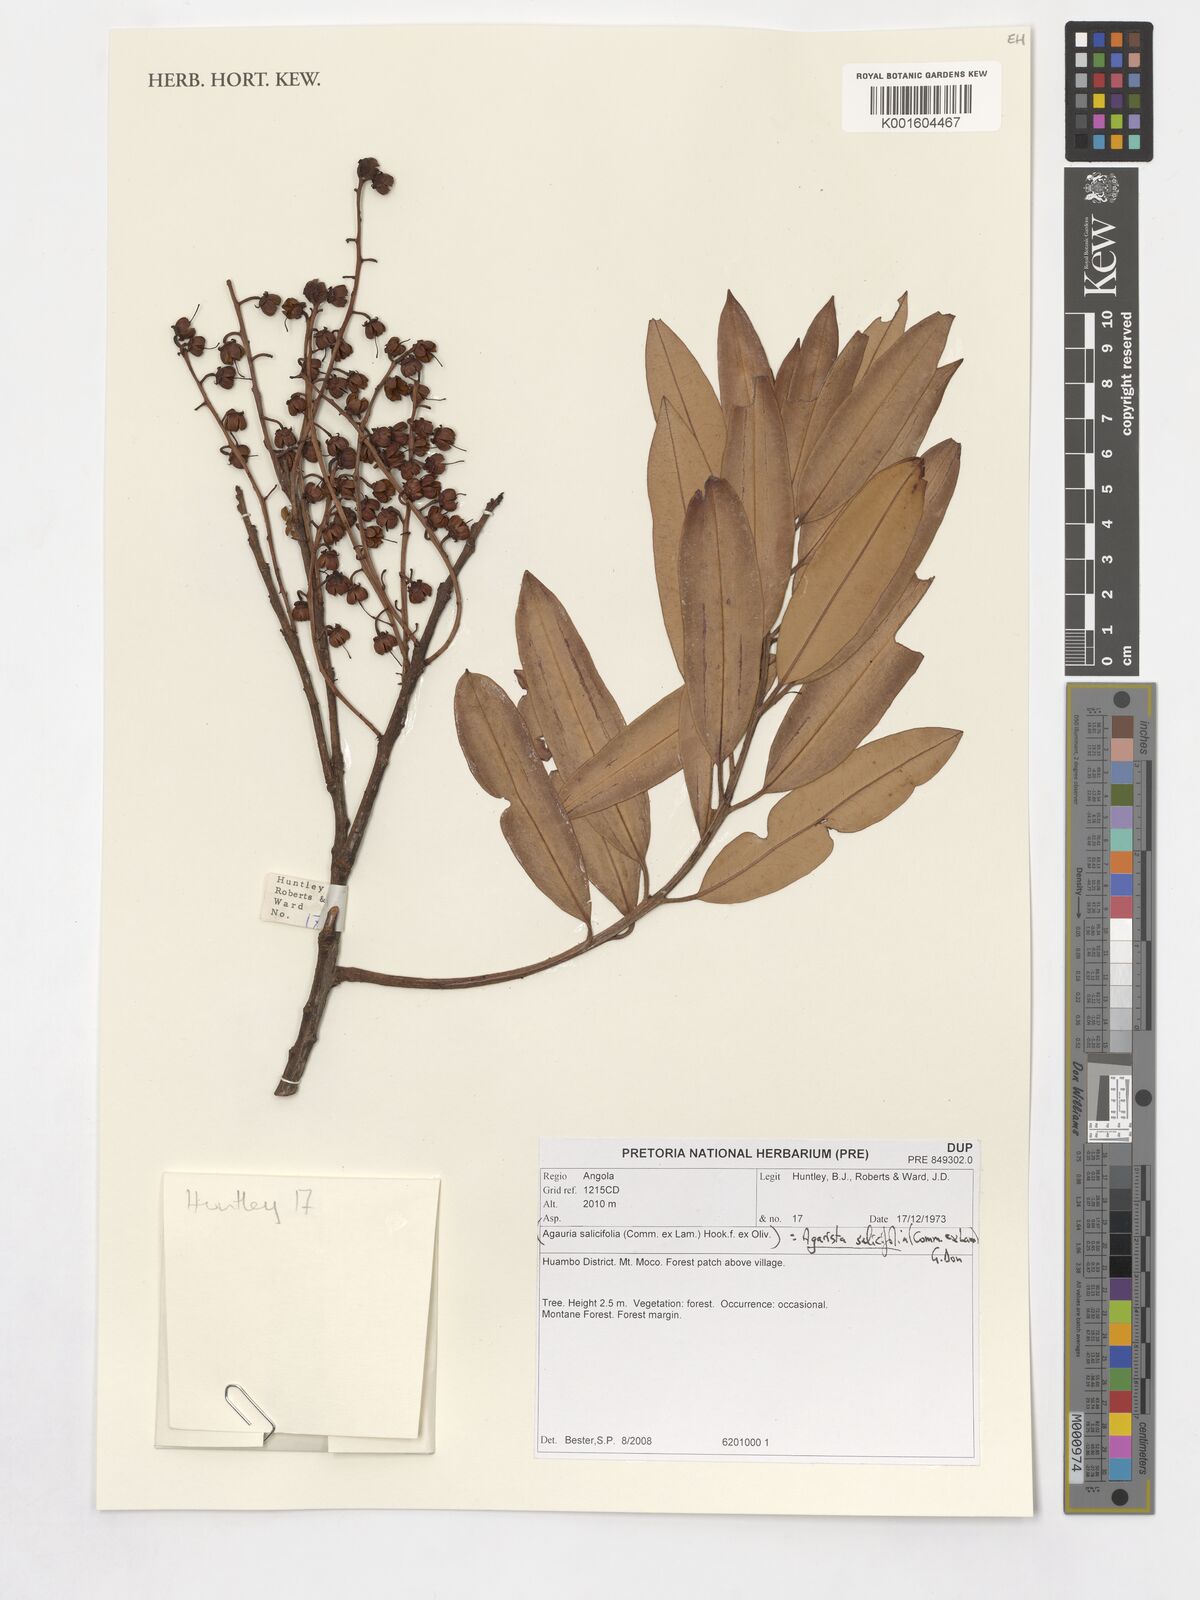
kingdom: Plantae
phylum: Tracheophyta
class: Magnoliopsida
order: Ericales
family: Ericaceae
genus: Agarista
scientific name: Agarista salicifolia
